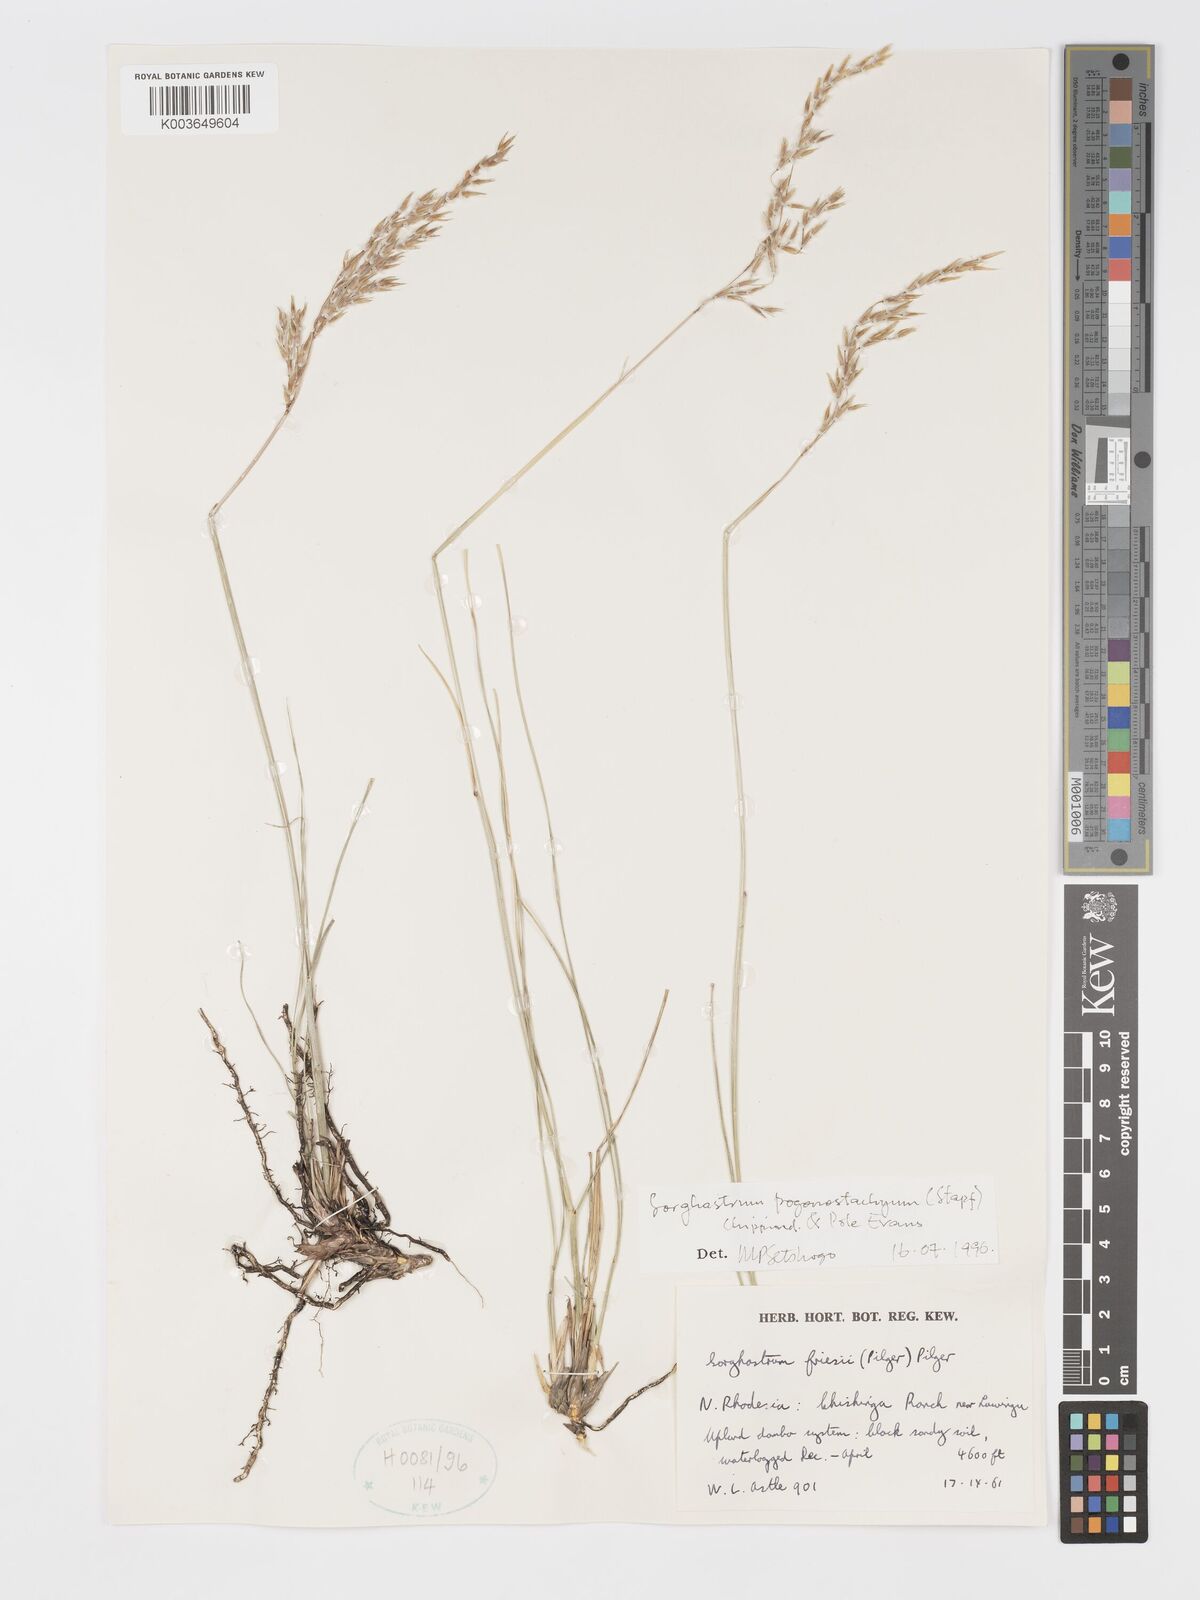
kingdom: Plantae
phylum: Tracheophyta
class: Liliopsida
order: Poales
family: Poaceae
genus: Sorghastrum
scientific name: Sorghastrum pogonostachyum
